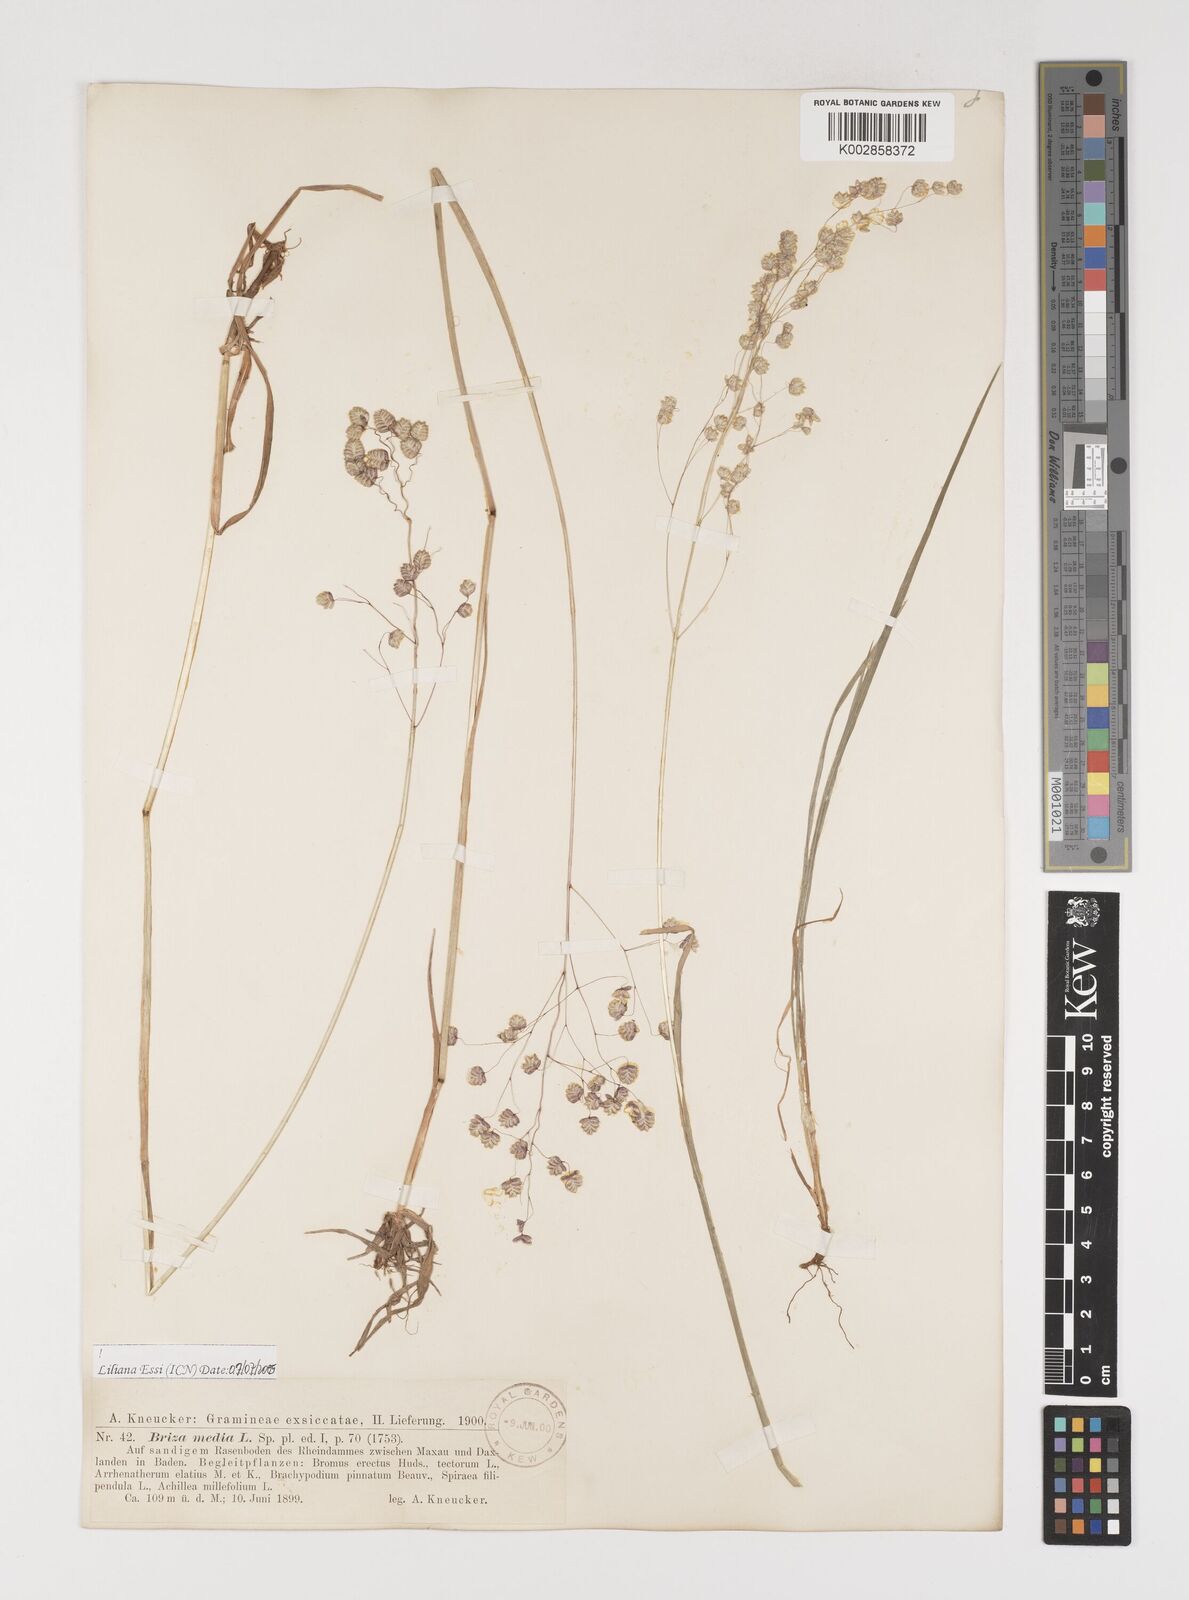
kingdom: Plantae
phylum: Tracheophyta
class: Liliopsida
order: Poales
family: Poaceae
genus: Briza
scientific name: Briza media
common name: Quaking grass
